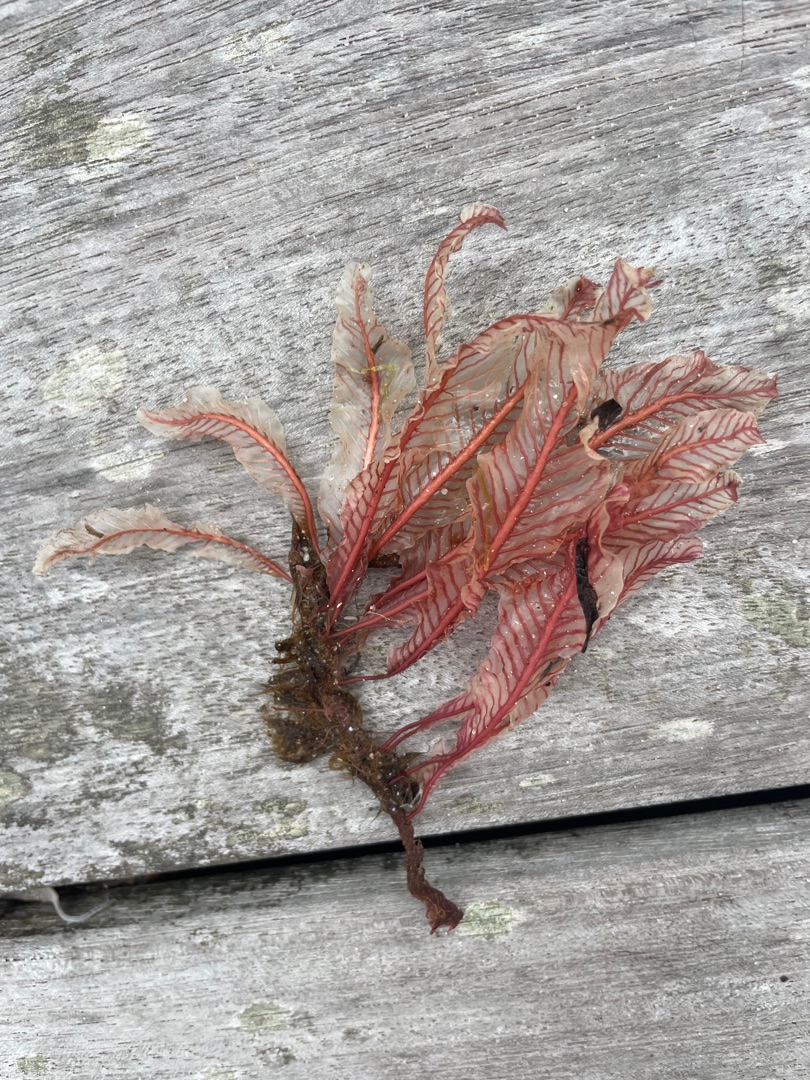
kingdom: Plantae
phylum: Rhodophyta
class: Florideophyceae
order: Ceramiales
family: Delesseriaceae
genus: Delesseria
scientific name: Delesseria sanguinea
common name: Blodrød ribbeblad
